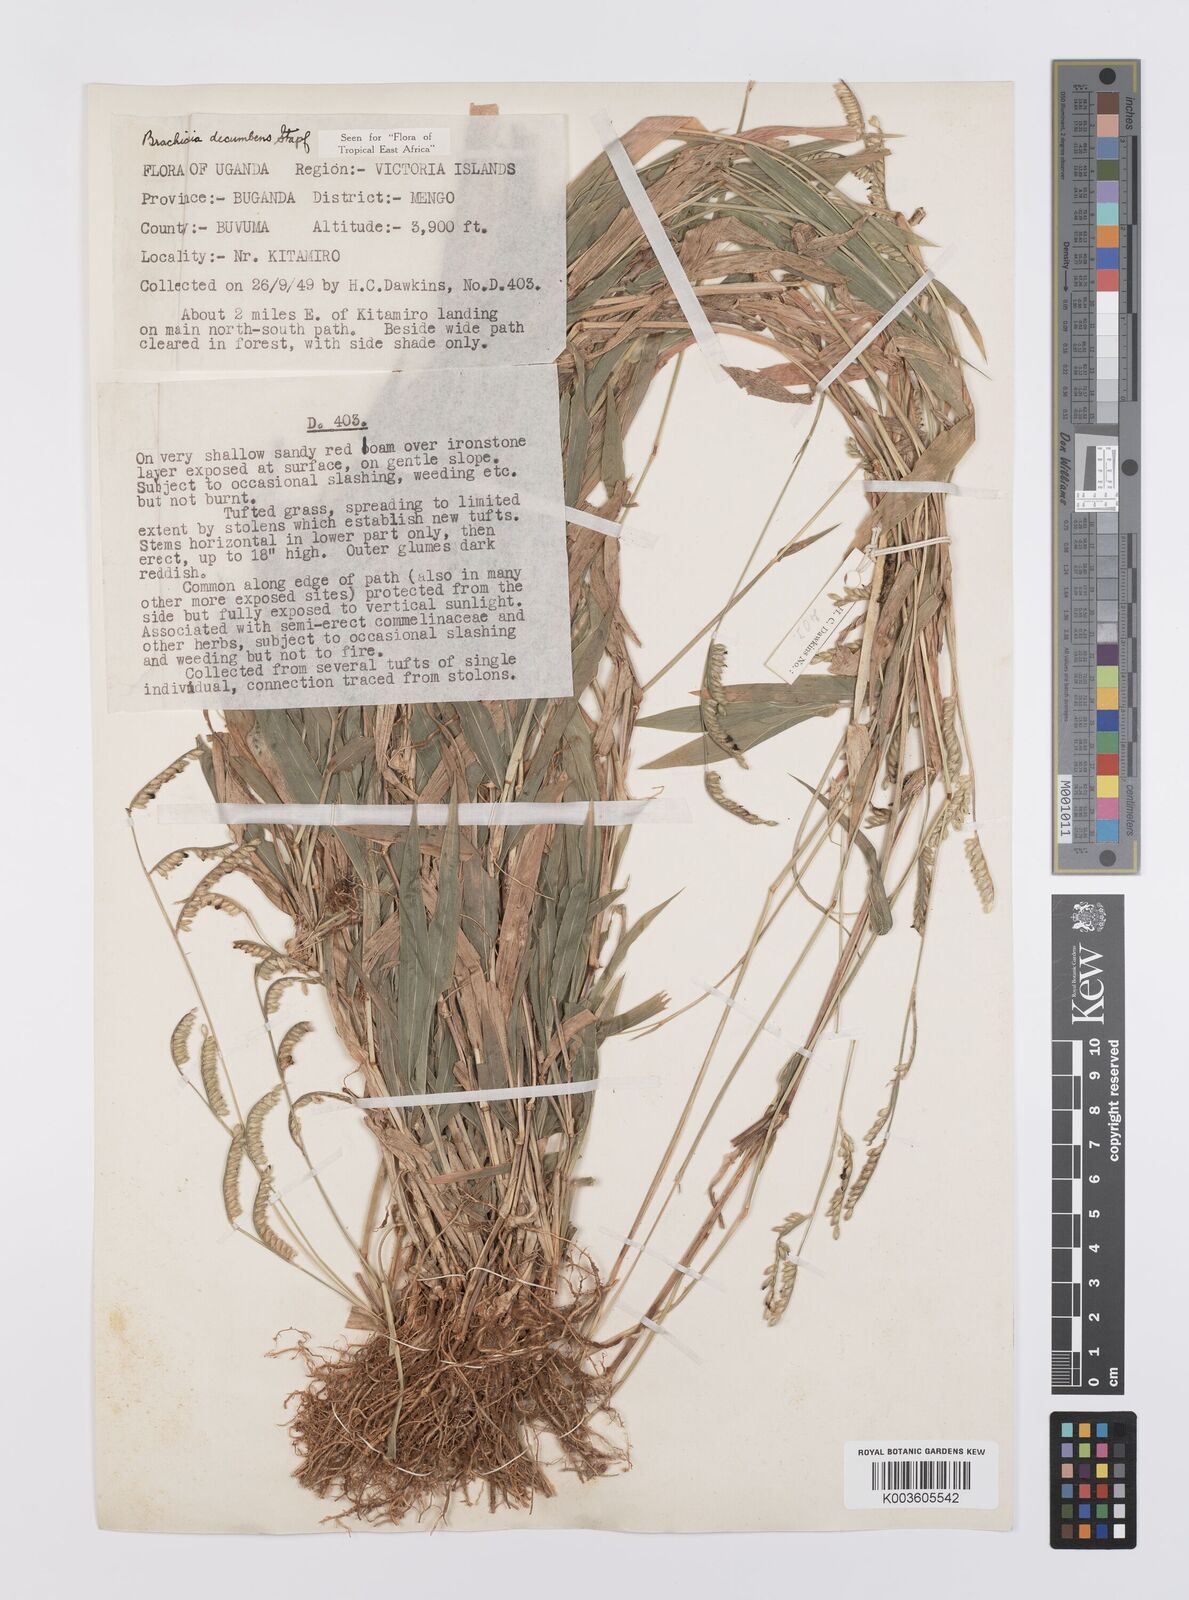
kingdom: Plantae
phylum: Tracheophyta
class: Liliopsida
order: Poales
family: Poaceae
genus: Urochloa
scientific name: Urochloa eminii
